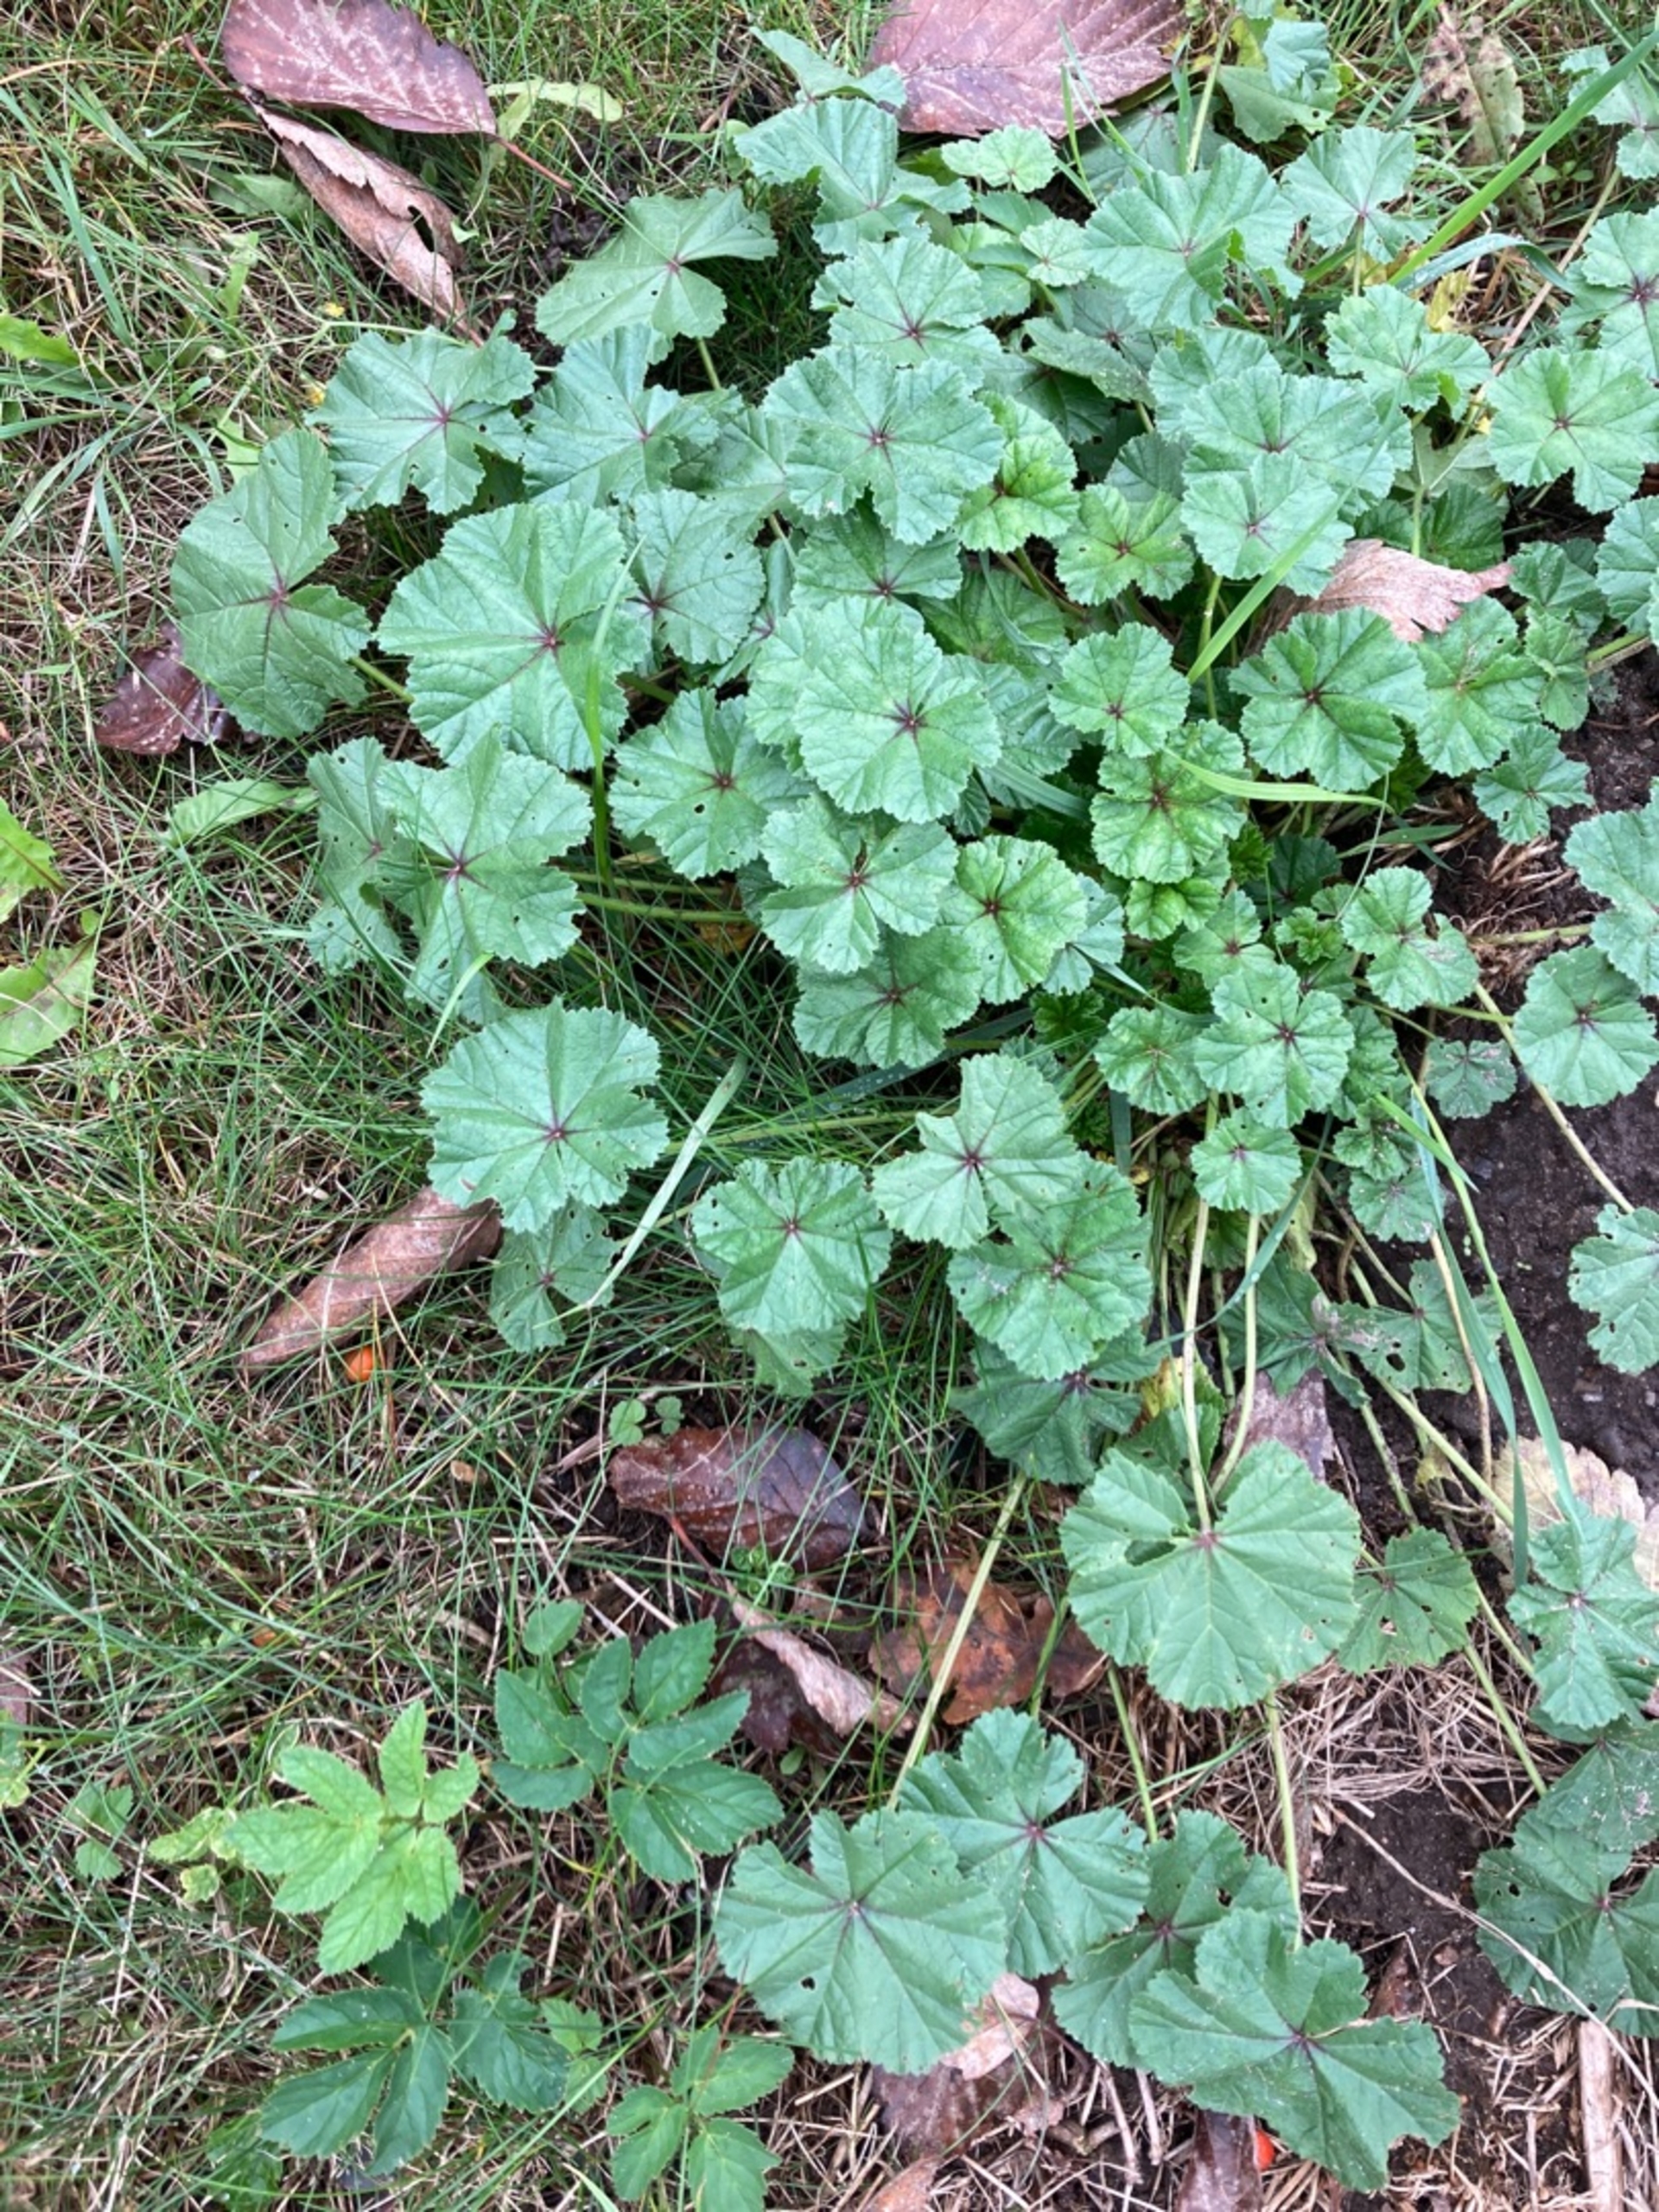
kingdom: Plantae
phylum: Tracheophyta
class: Magnoliopsida
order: Malvales
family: Malvaceae
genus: Malva
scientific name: Malva neglecta
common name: Rundbladet katost
